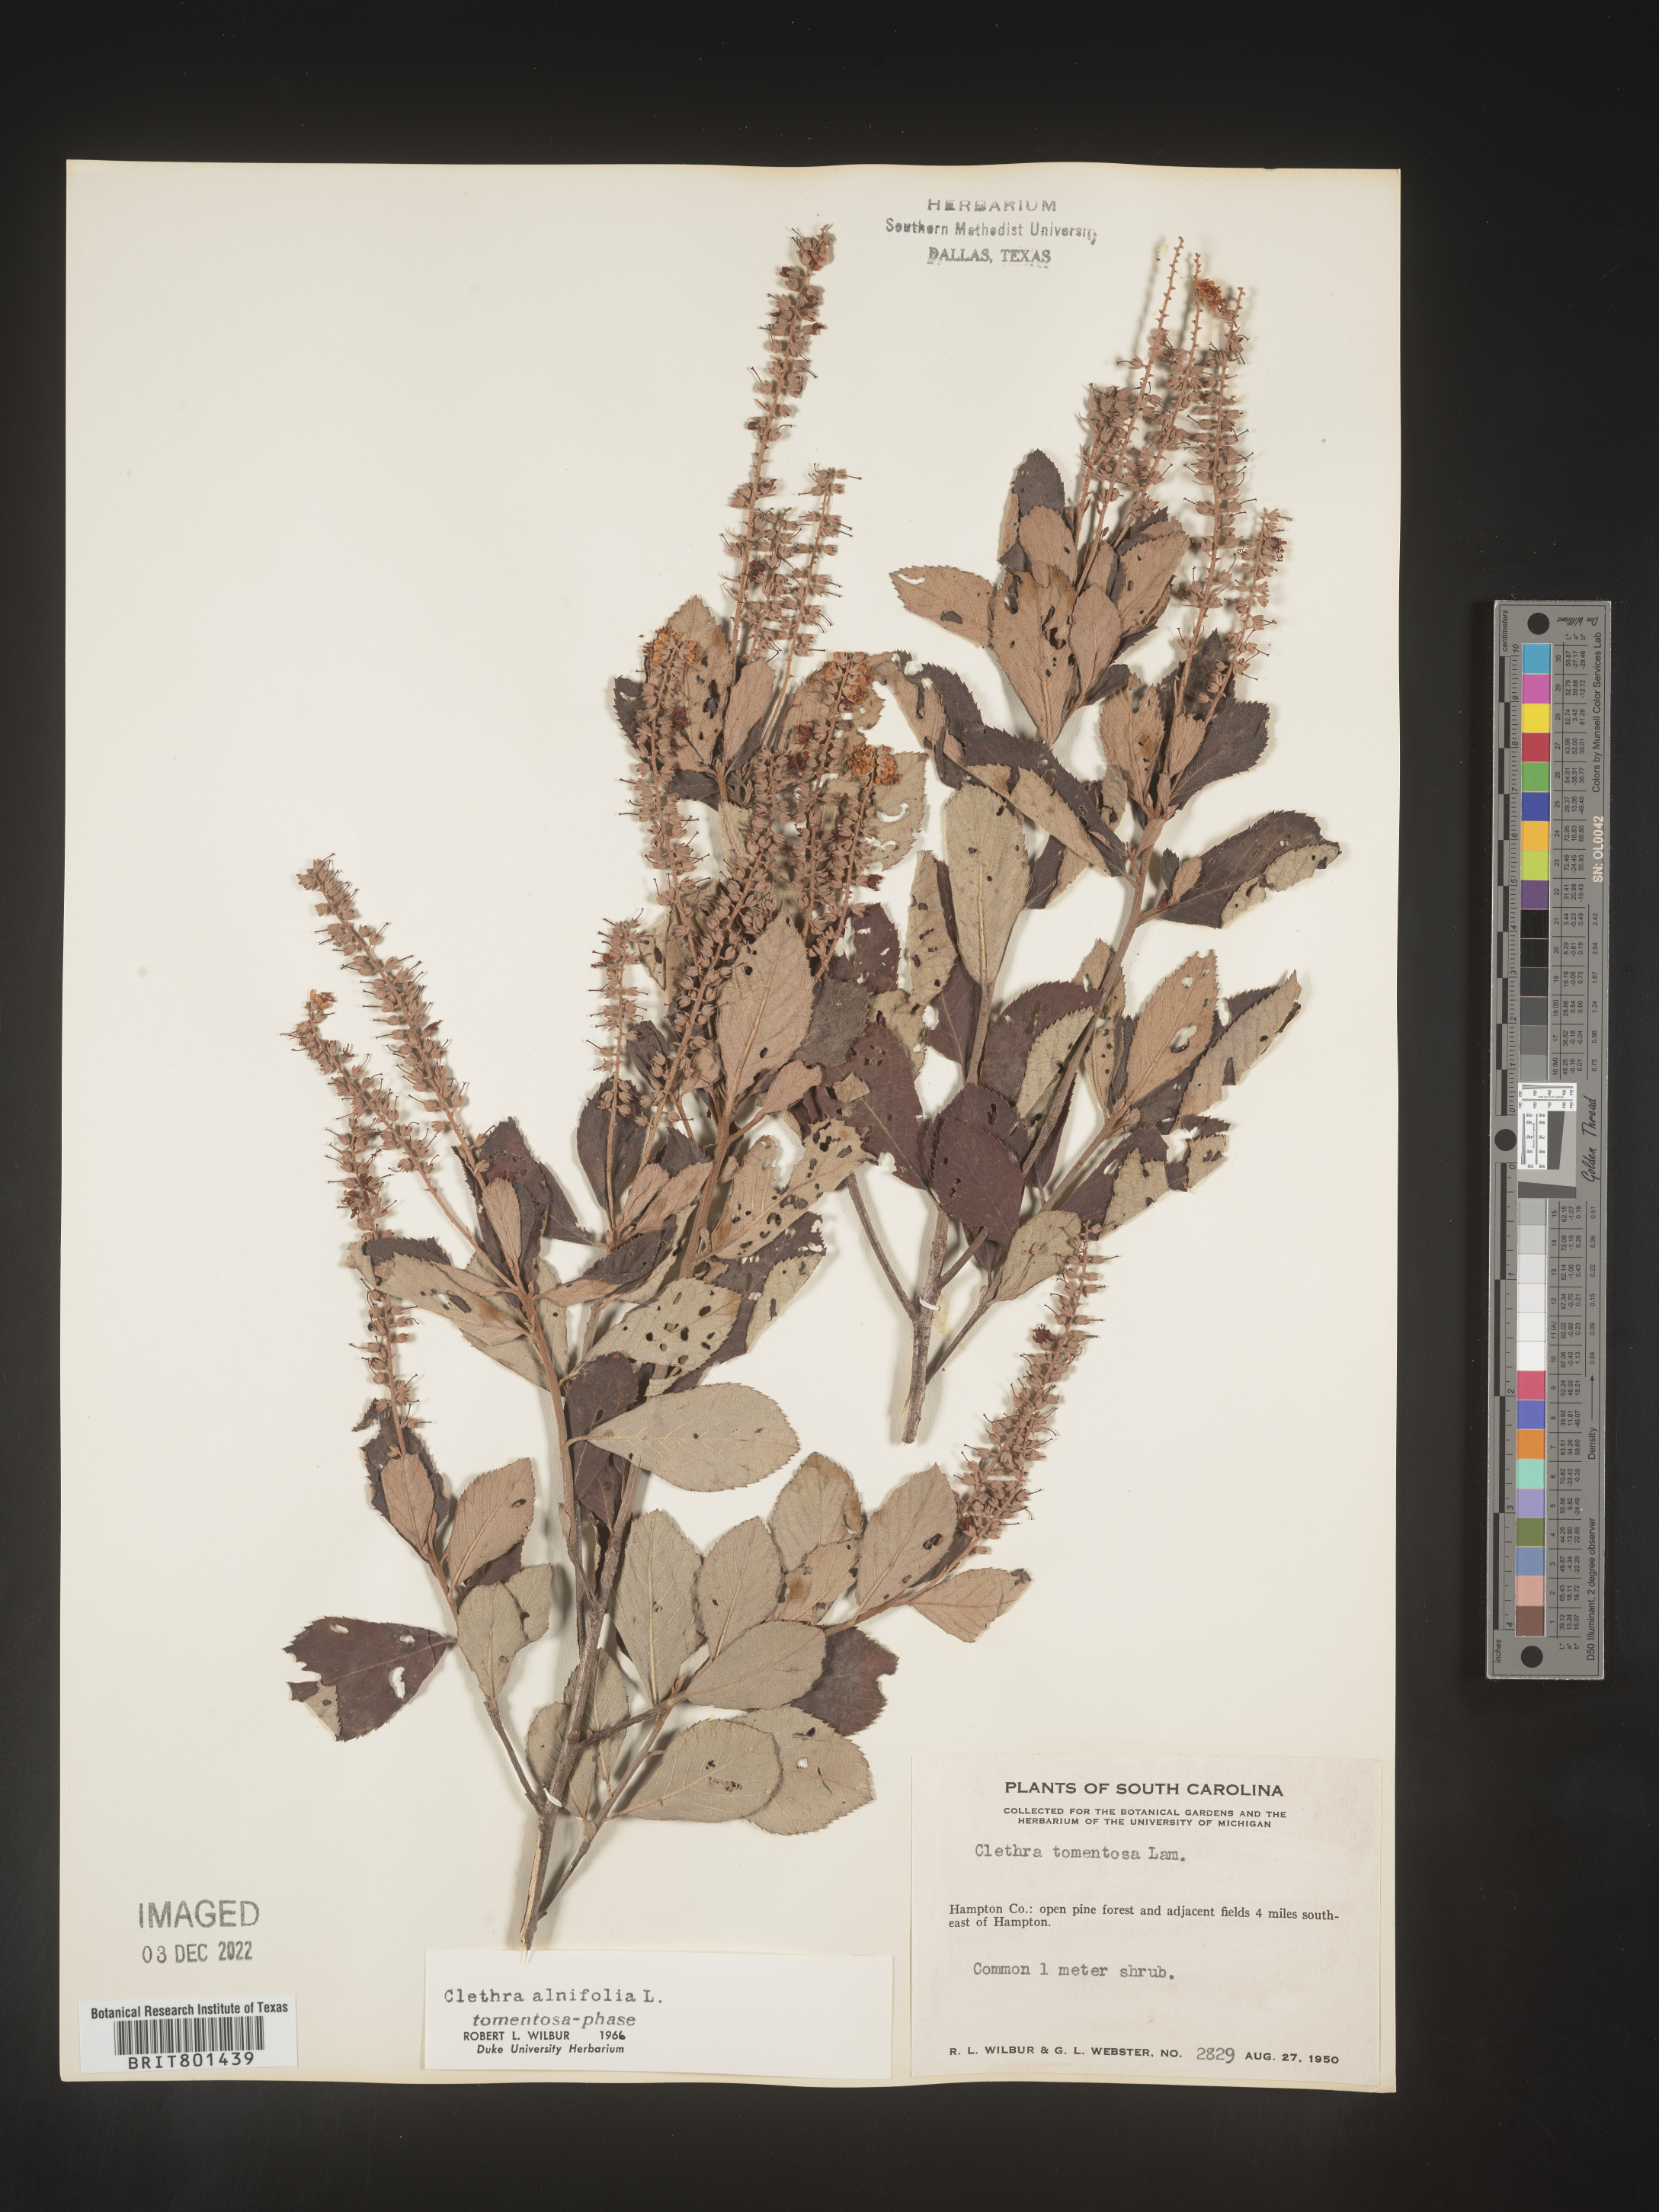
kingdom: Plantae
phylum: Tracheophyta
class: Magnoliopsida
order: Ericales
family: Clethraceae
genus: Clethra
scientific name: Clethra alnifolia
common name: Sweet pepperbush
